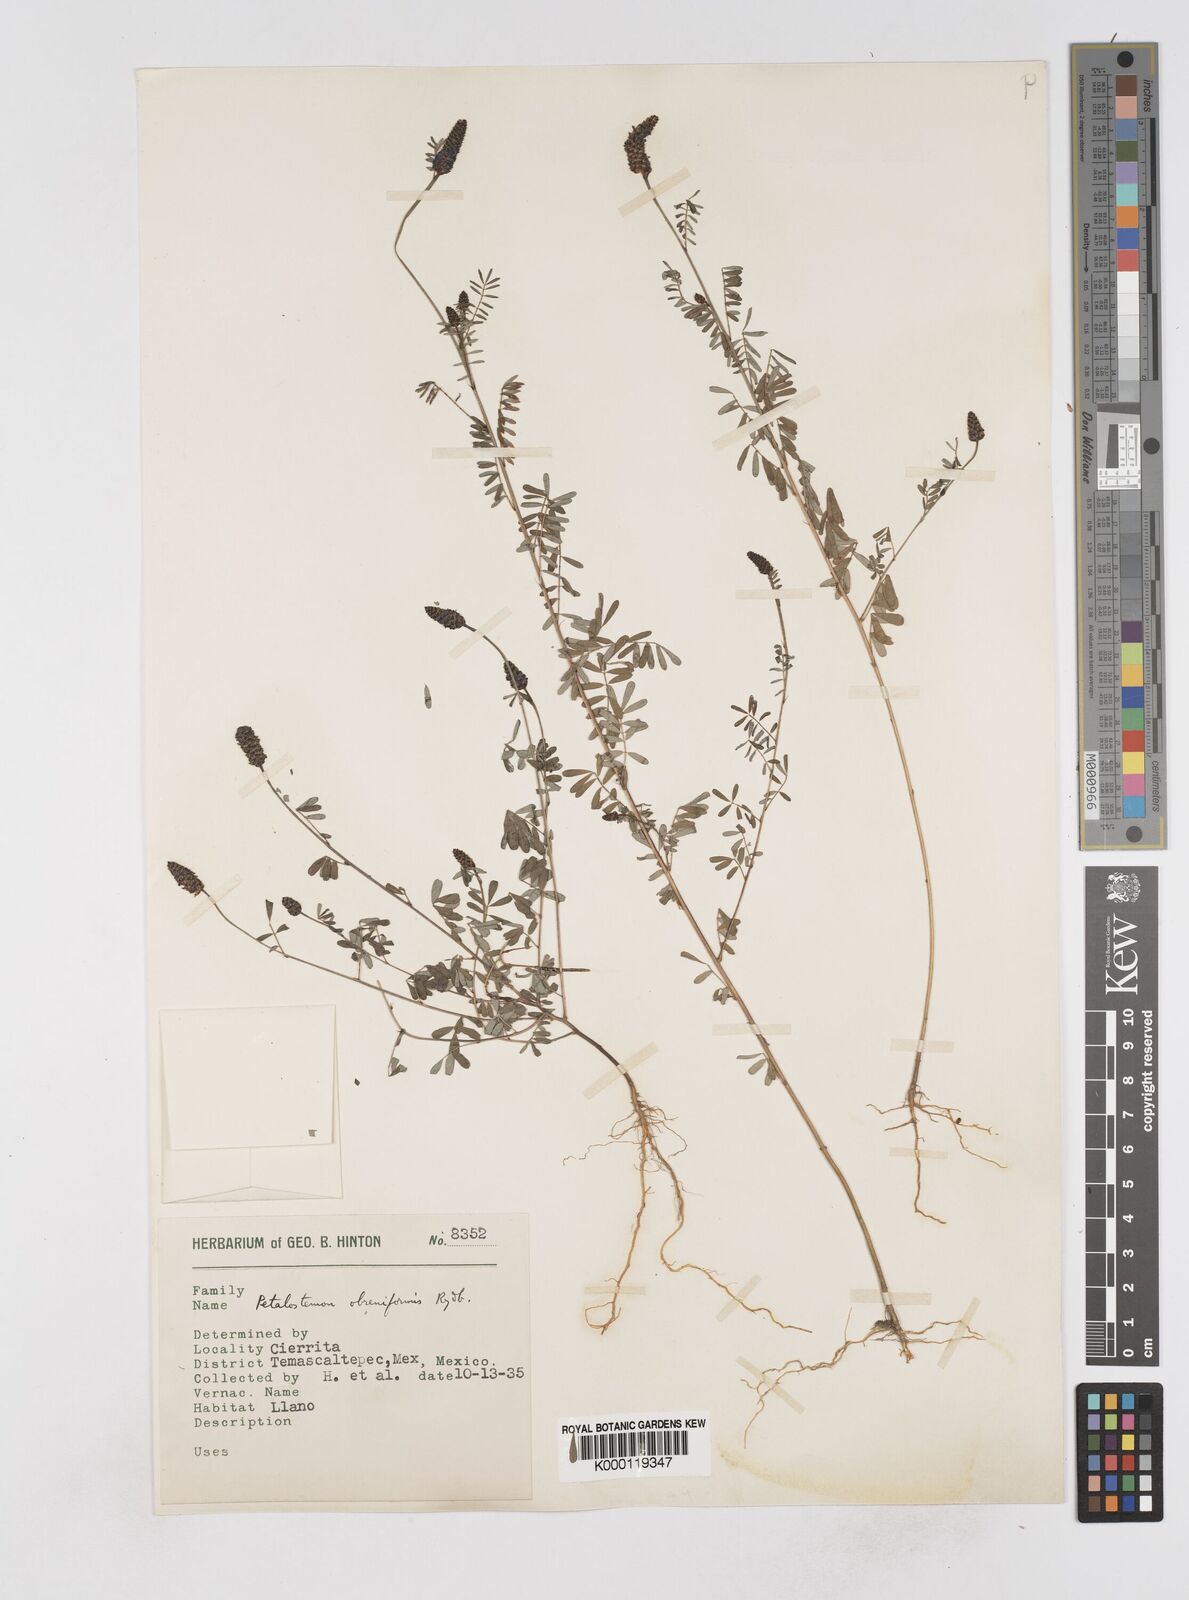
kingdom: Plantae
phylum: Tracheophyta
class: Magnoliopsida
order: Fabales
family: Fabaceae
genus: Dalea
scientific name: Dalea obreniformis
